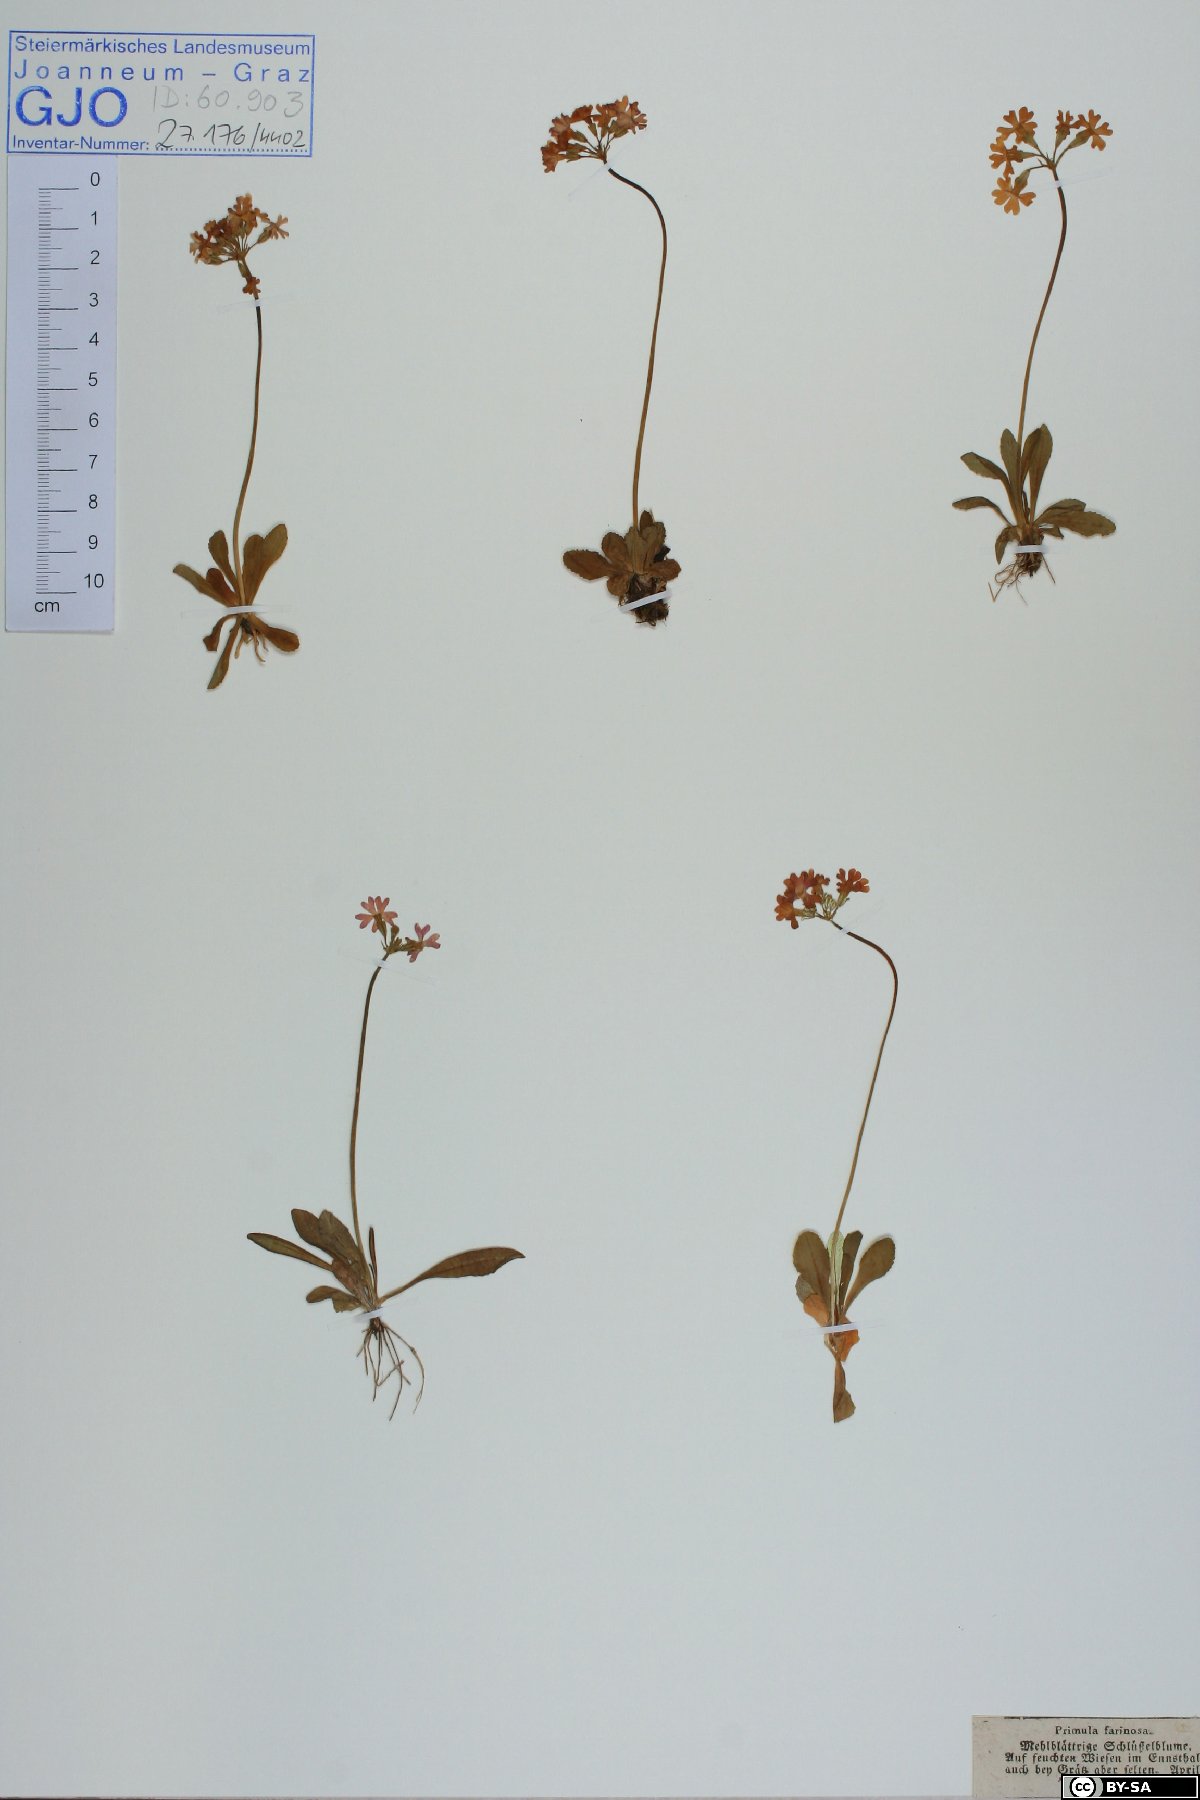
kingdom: Plantae
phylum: Tracheophyta
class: Magnoliopsida
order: Ericales
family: Primulaceae
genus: Primula
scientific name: Primula farinosa
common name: Bird's-eye primrose
